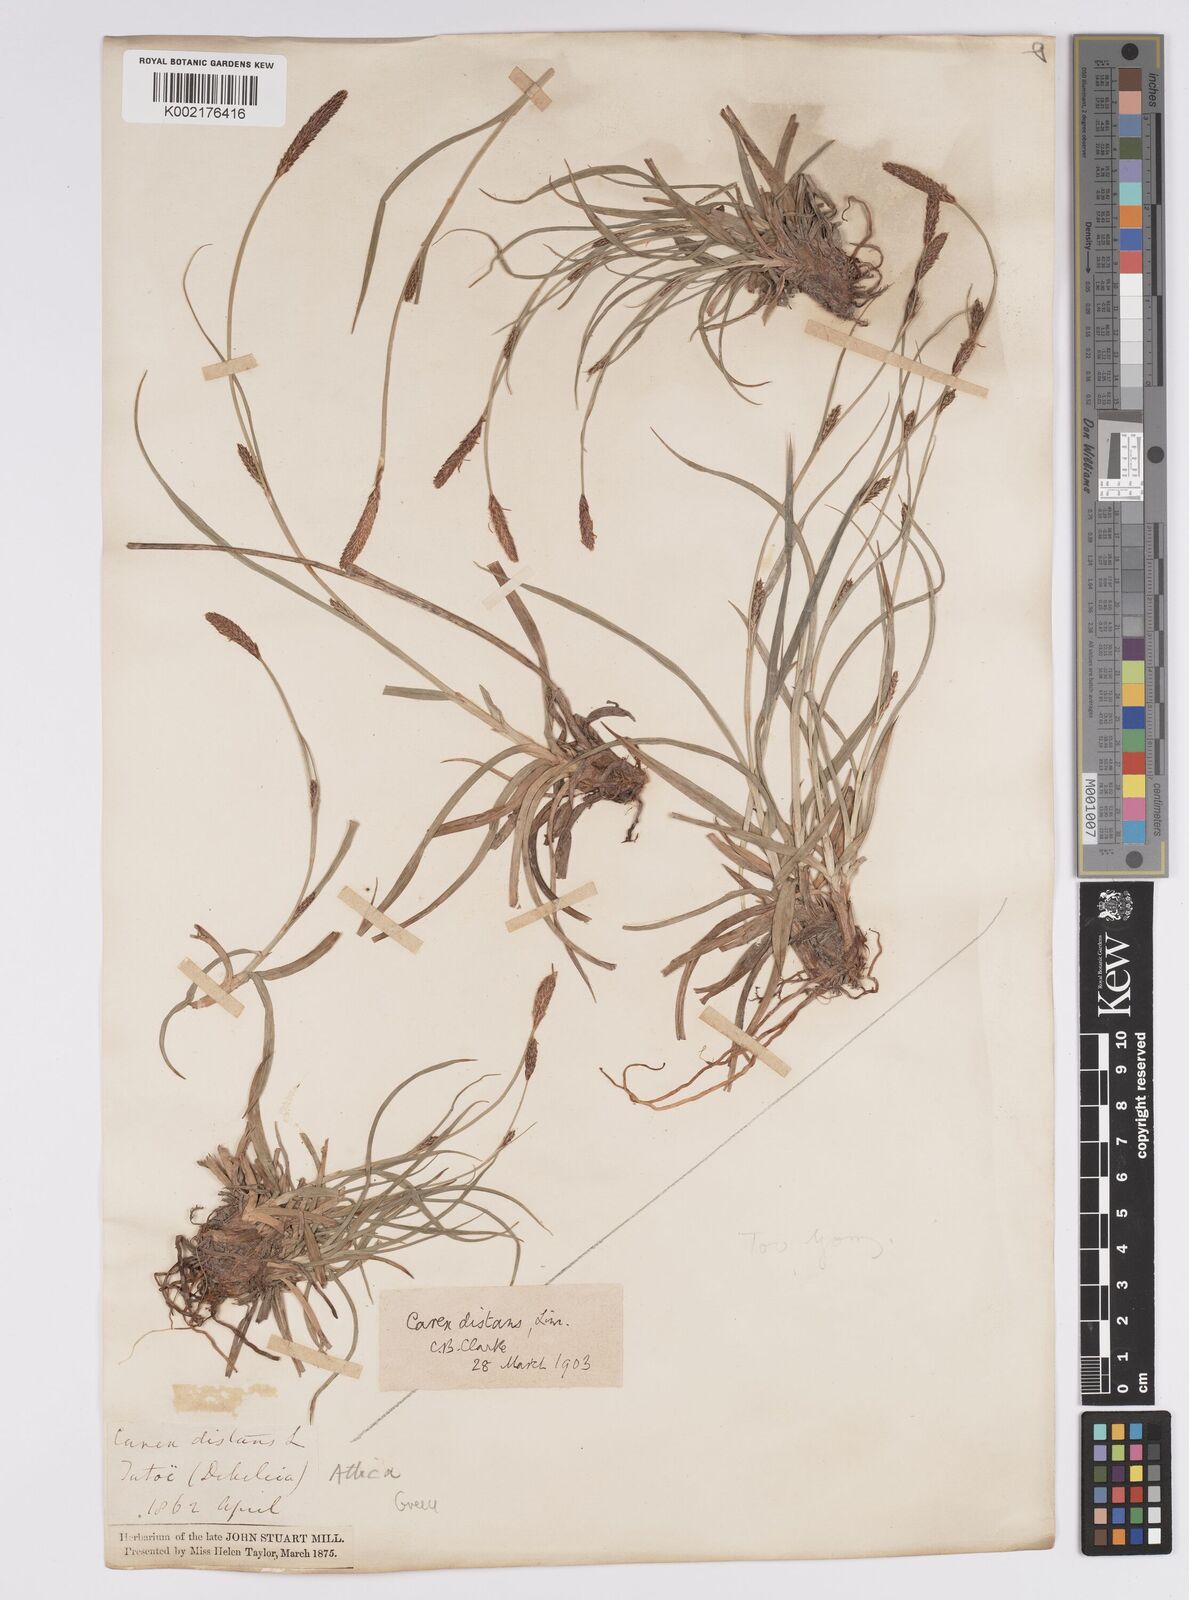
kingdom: Plantae
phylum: Tracheophyta
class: Liliopsida
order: Poales
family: Cyperaceae
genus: Carex
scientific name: Carex distans
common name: Distant sedge
